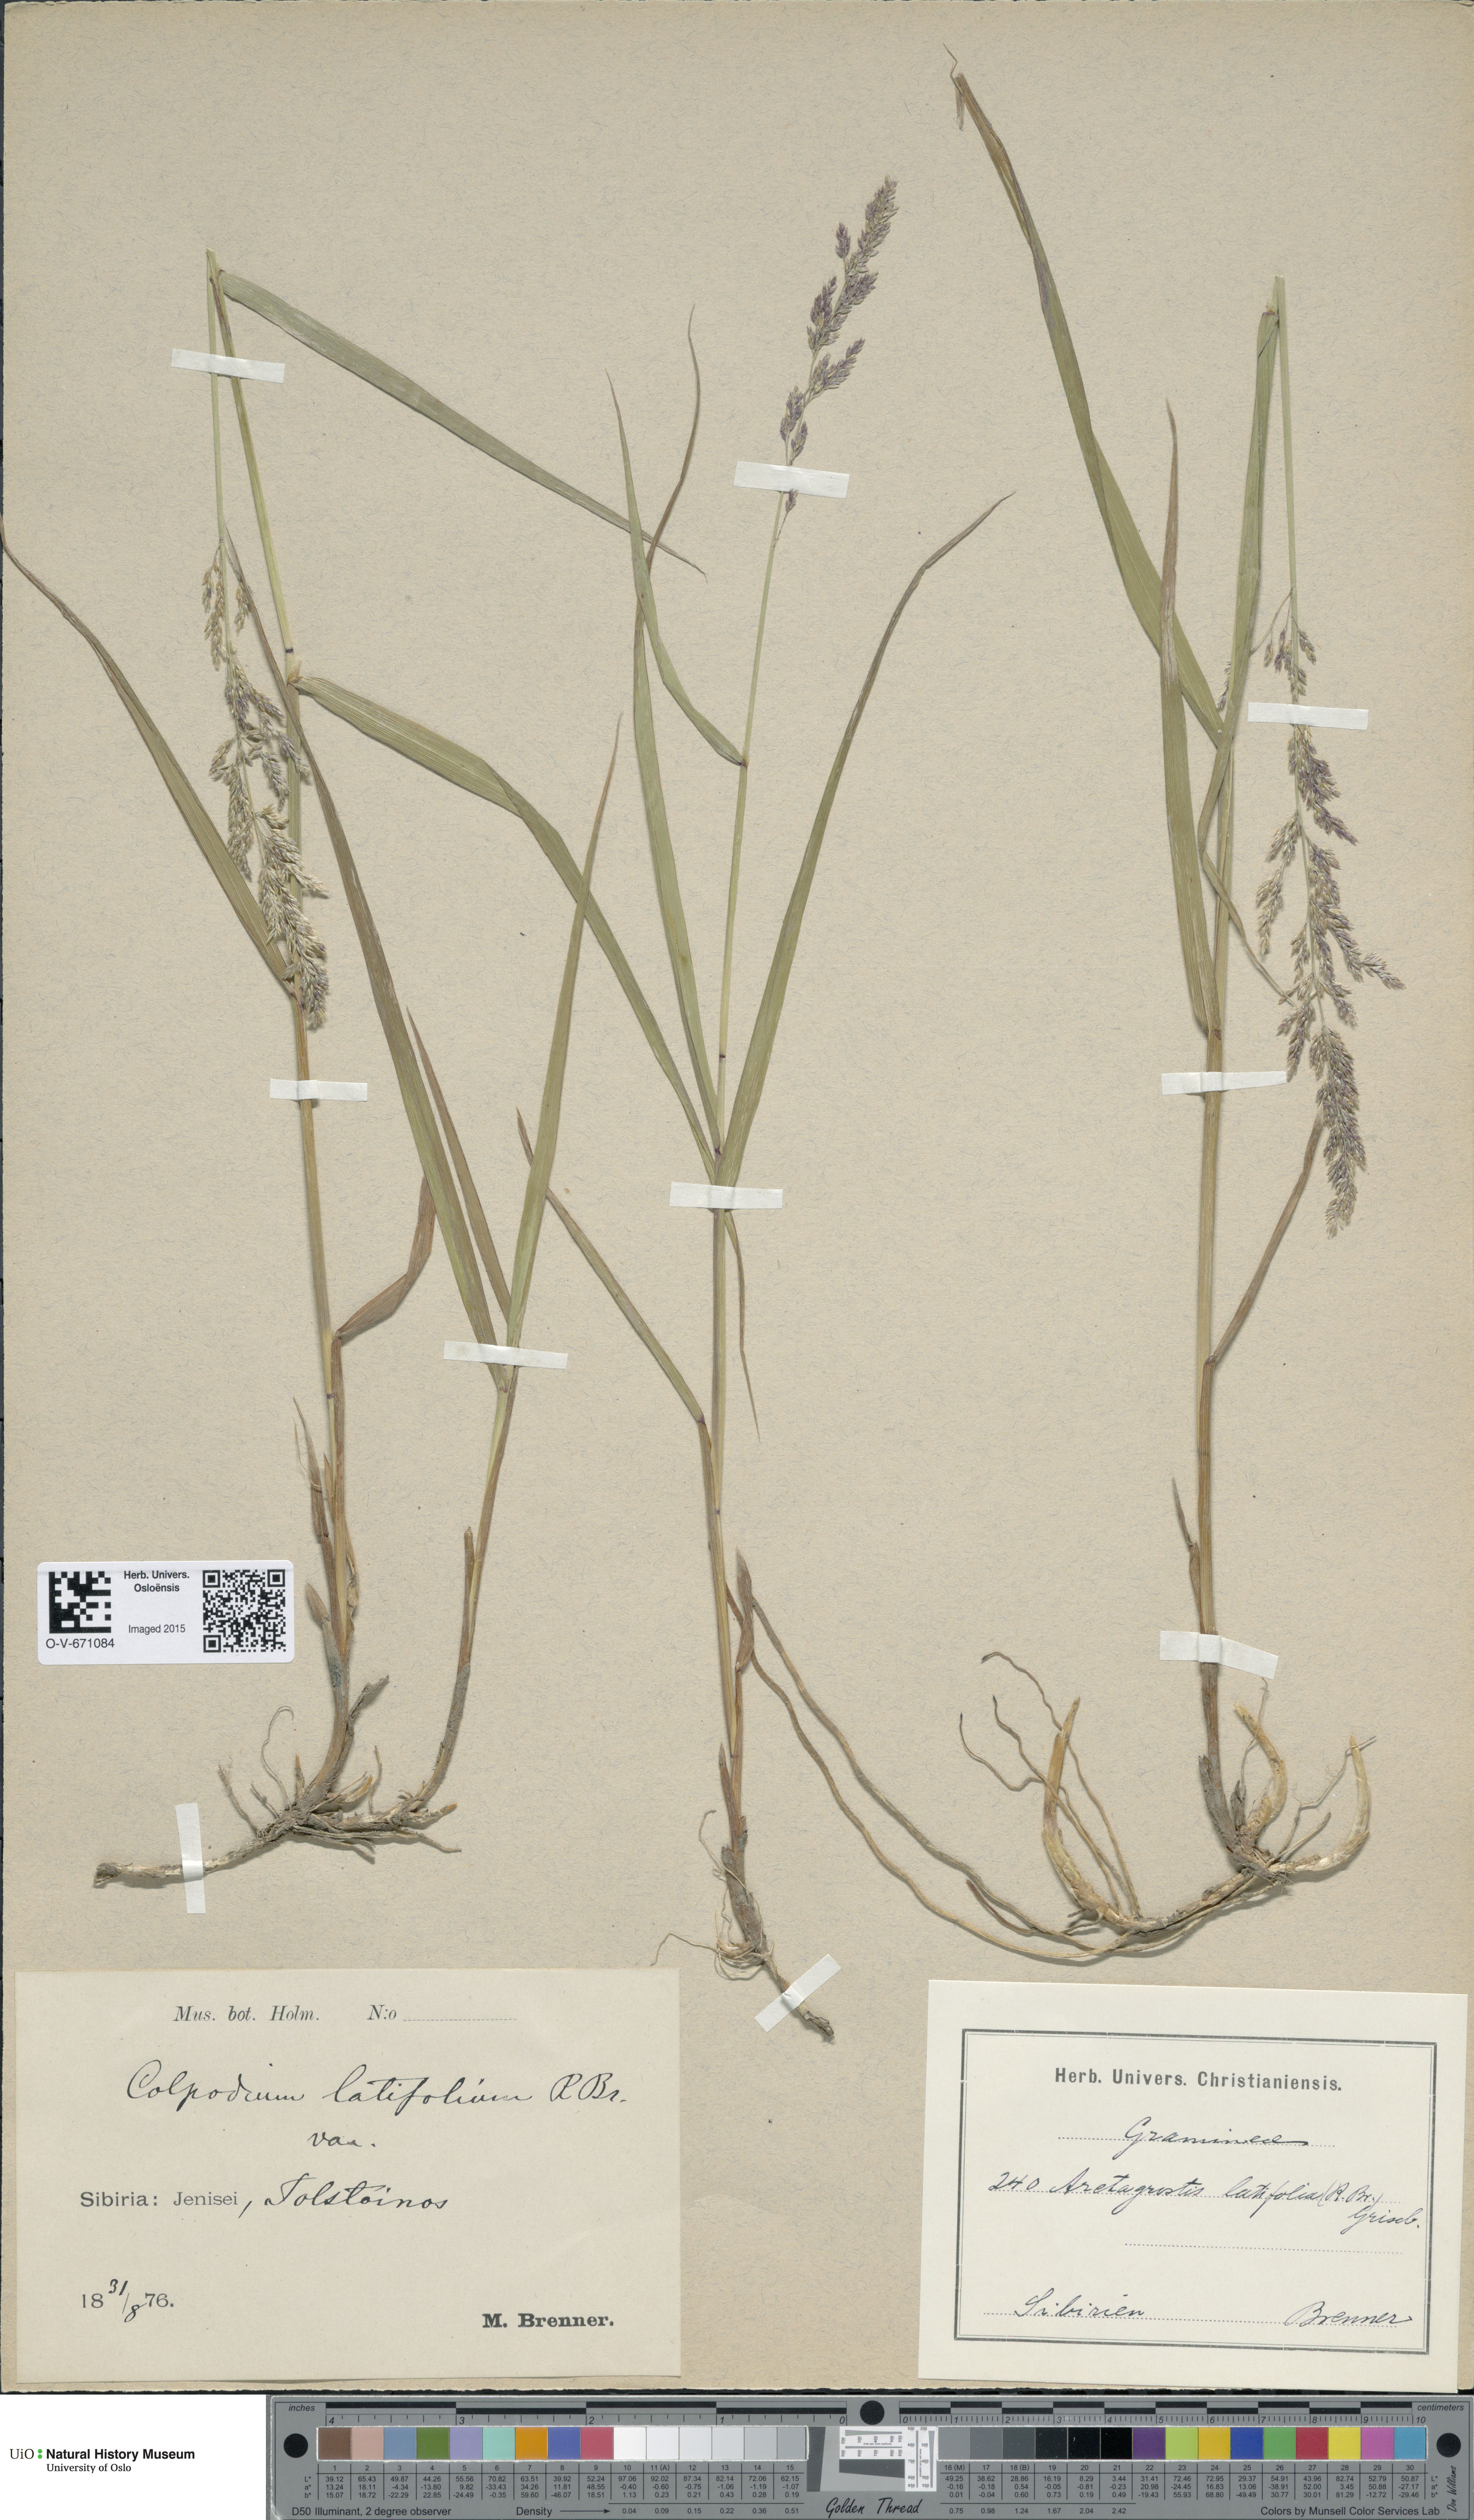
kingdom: Plantae
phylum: Tracheophyta
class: Liliopsida
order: Poales
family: Poaceae
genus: Arctagrostis
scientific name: Arctagrostis latifolia
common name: Arctic grass
